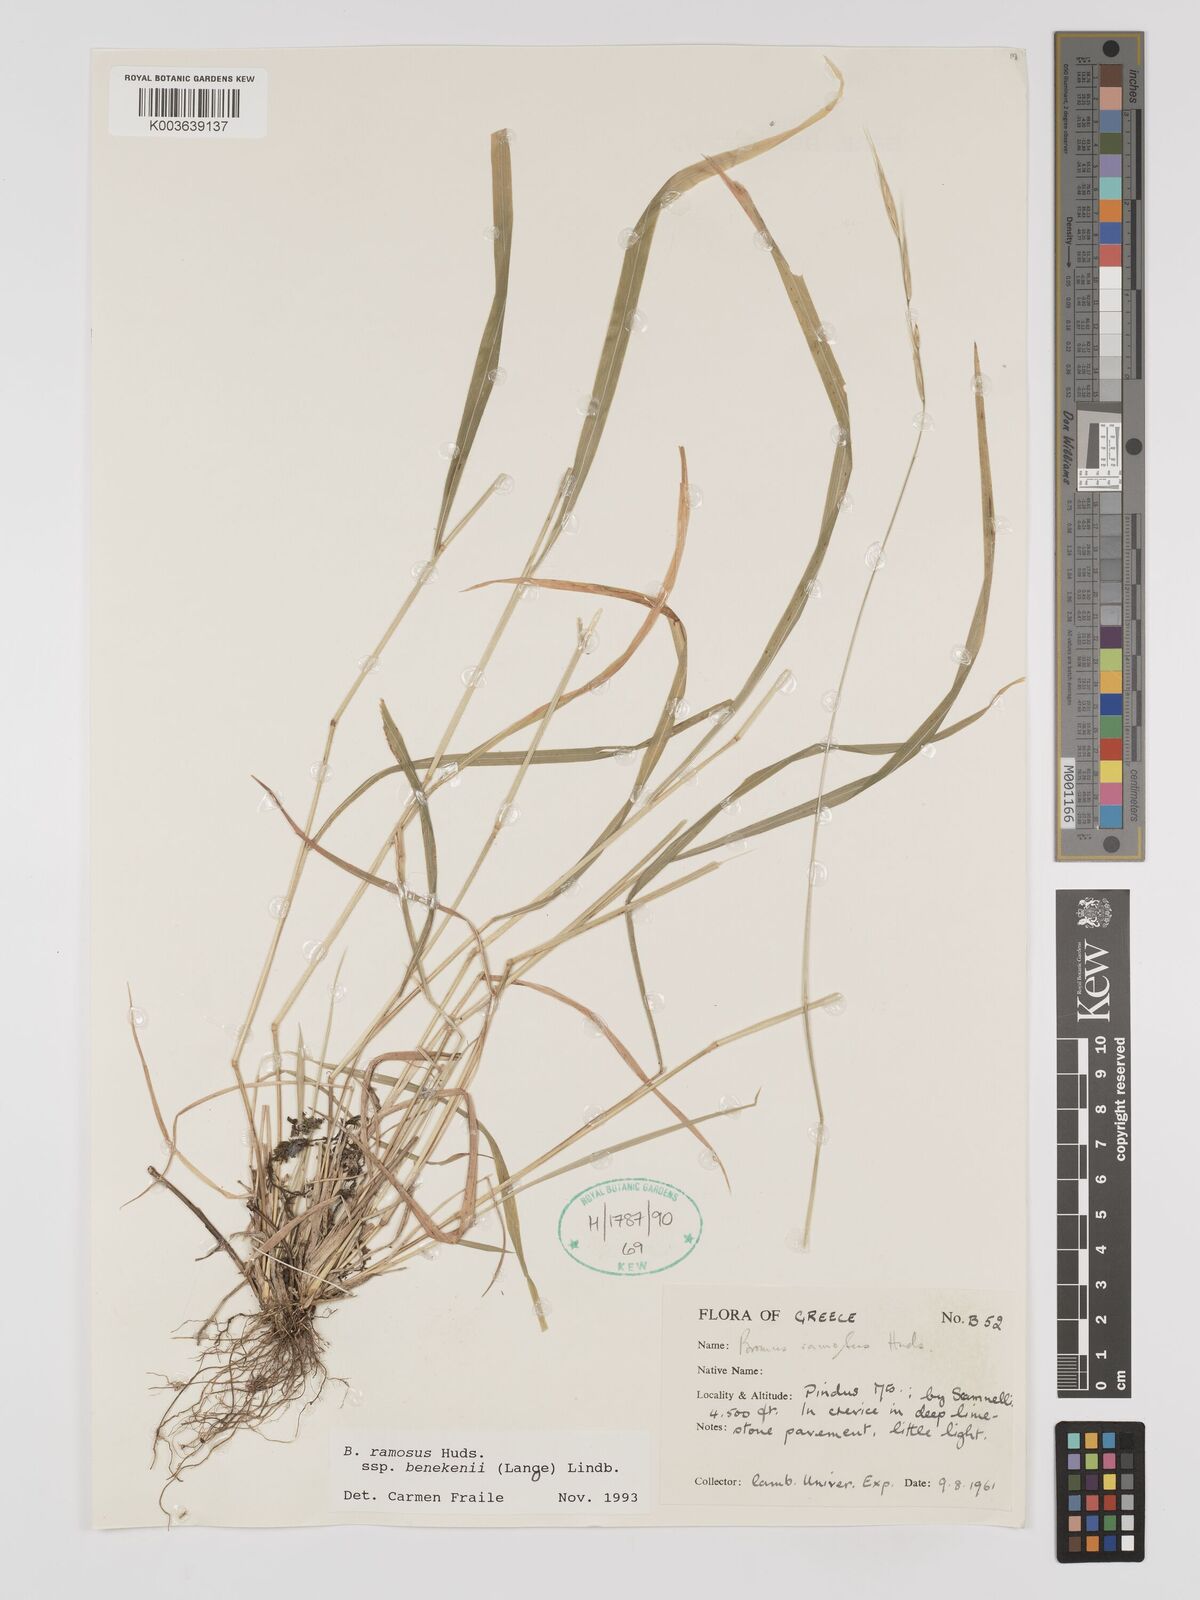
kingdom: Plantae
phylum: Tracheophyta
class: Liliopsida
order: Poales
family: Poaceae
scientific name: Poaceae
